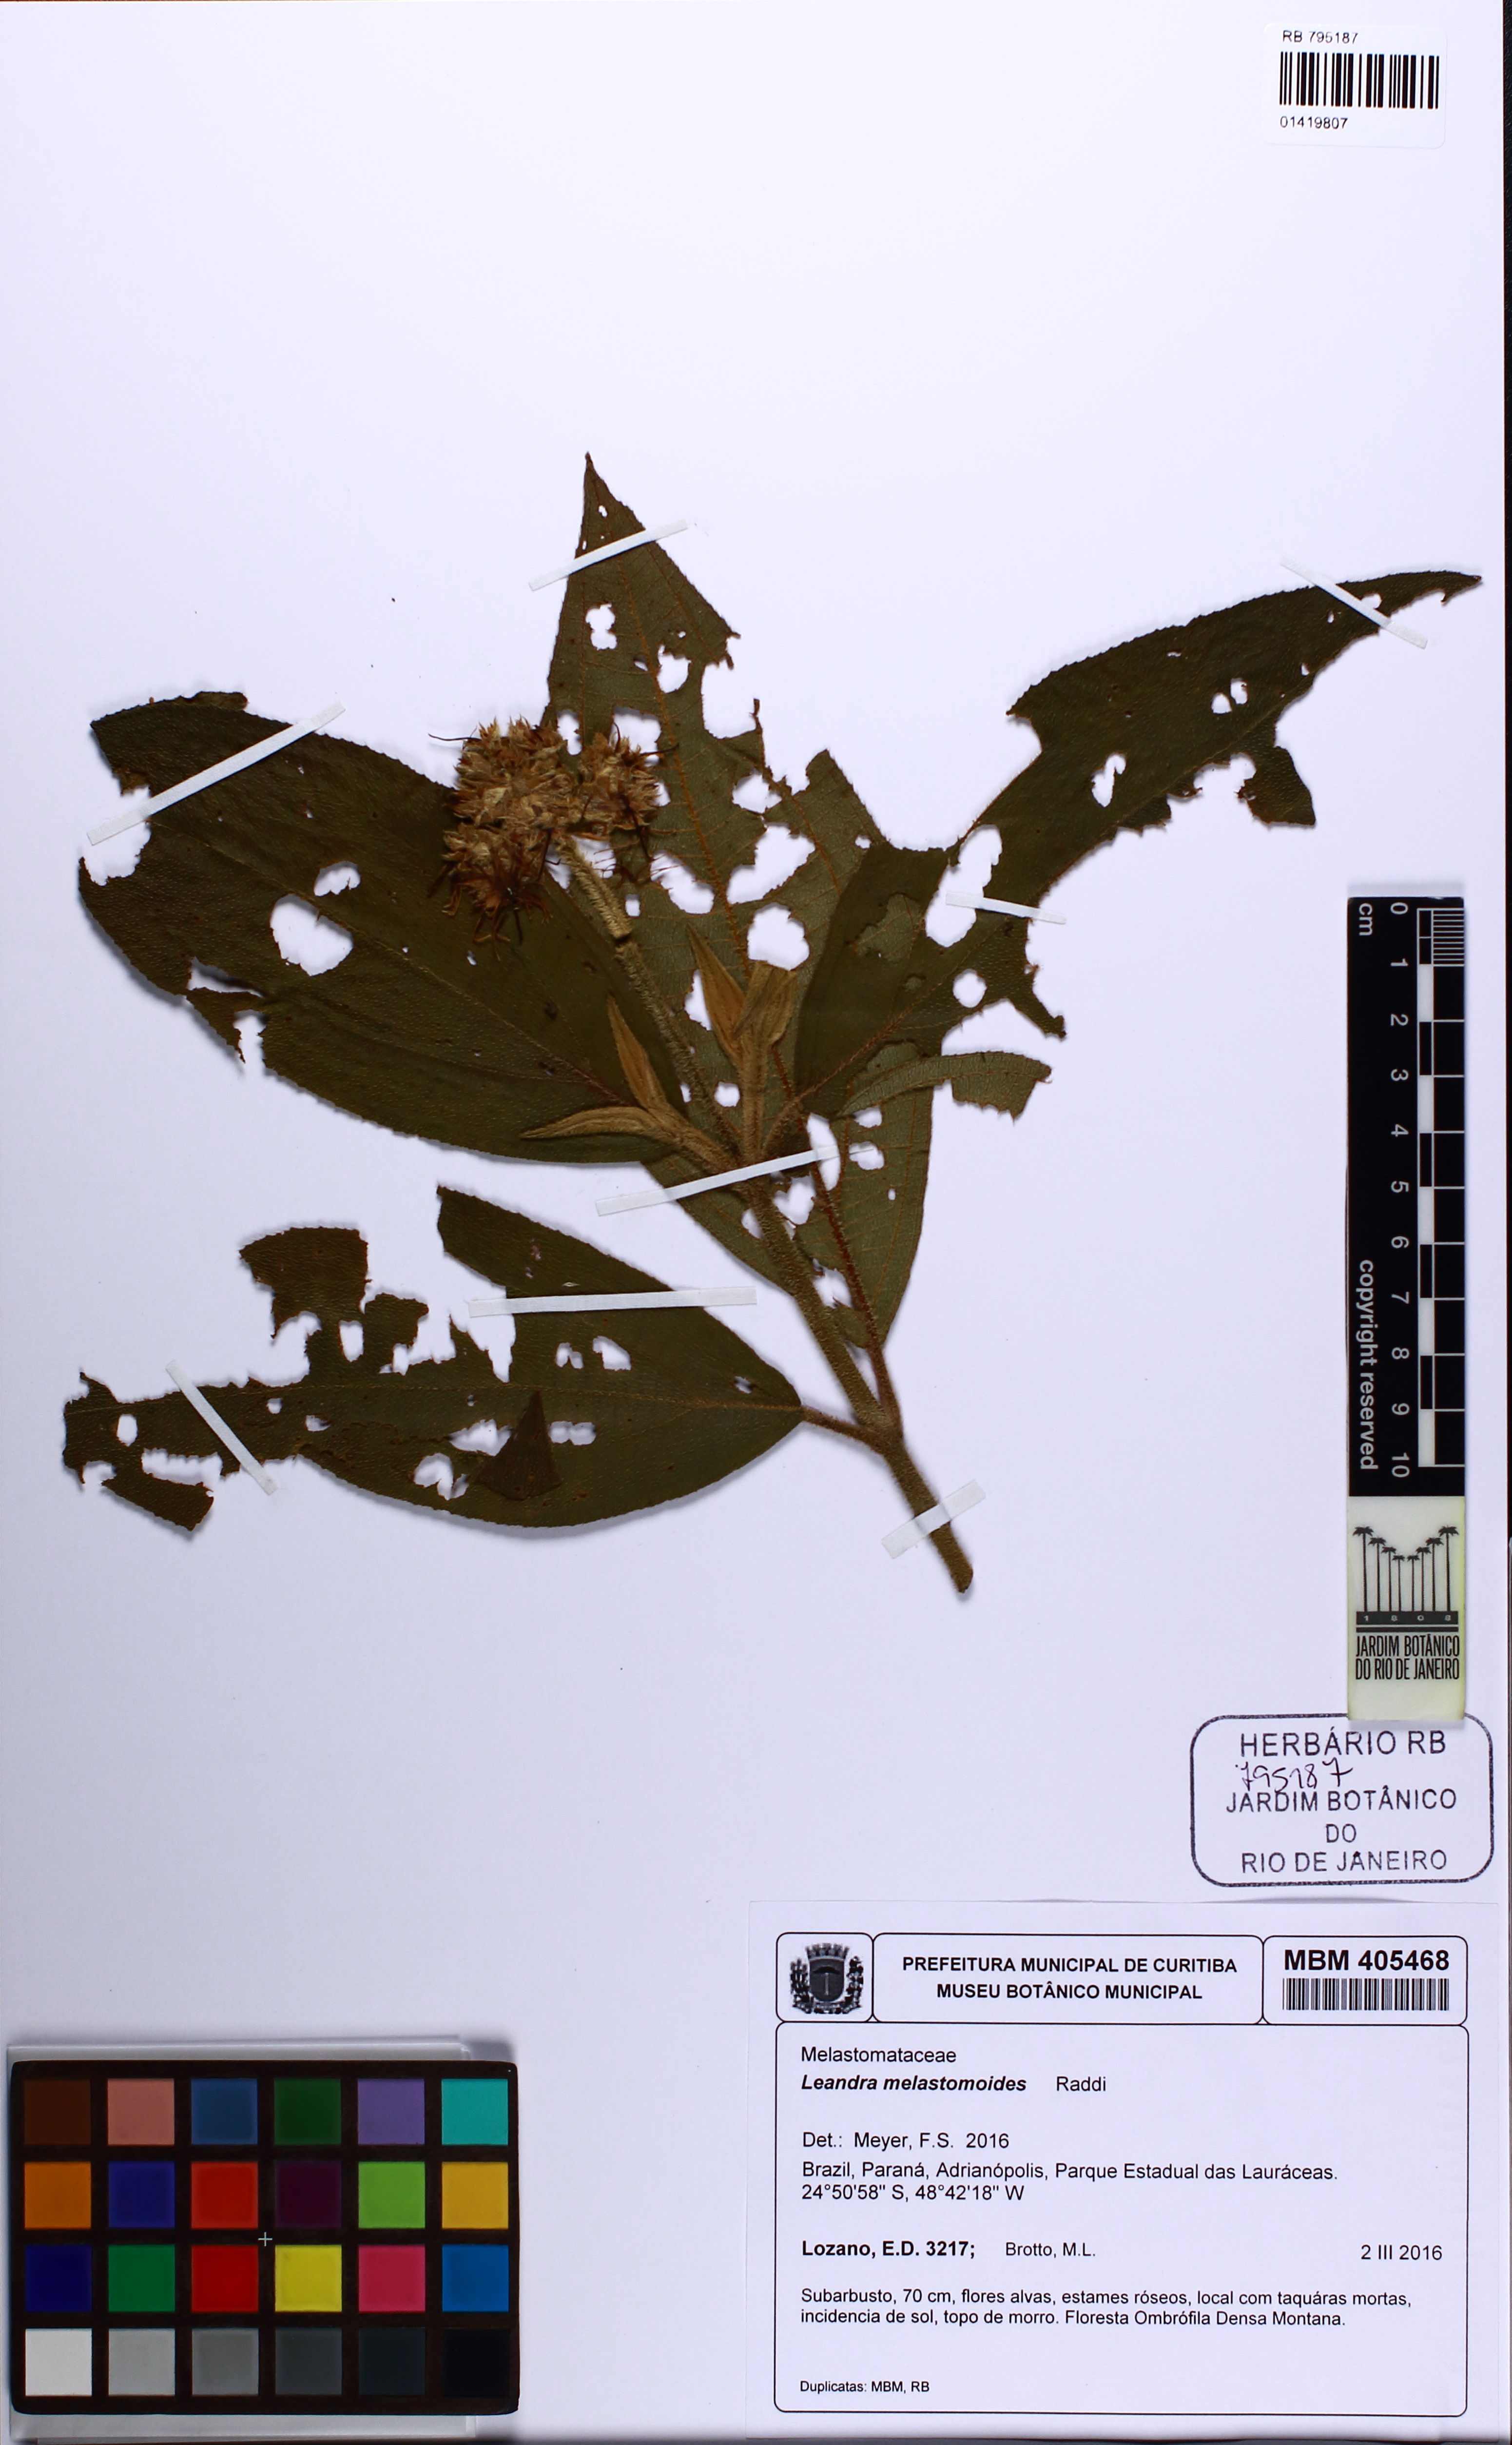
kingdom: Plantae
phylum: Tracheophyta
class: Magnoliopsida
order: Myrtales
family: Melastomataceae
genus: Miconia
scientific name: Miconia melastomoides
